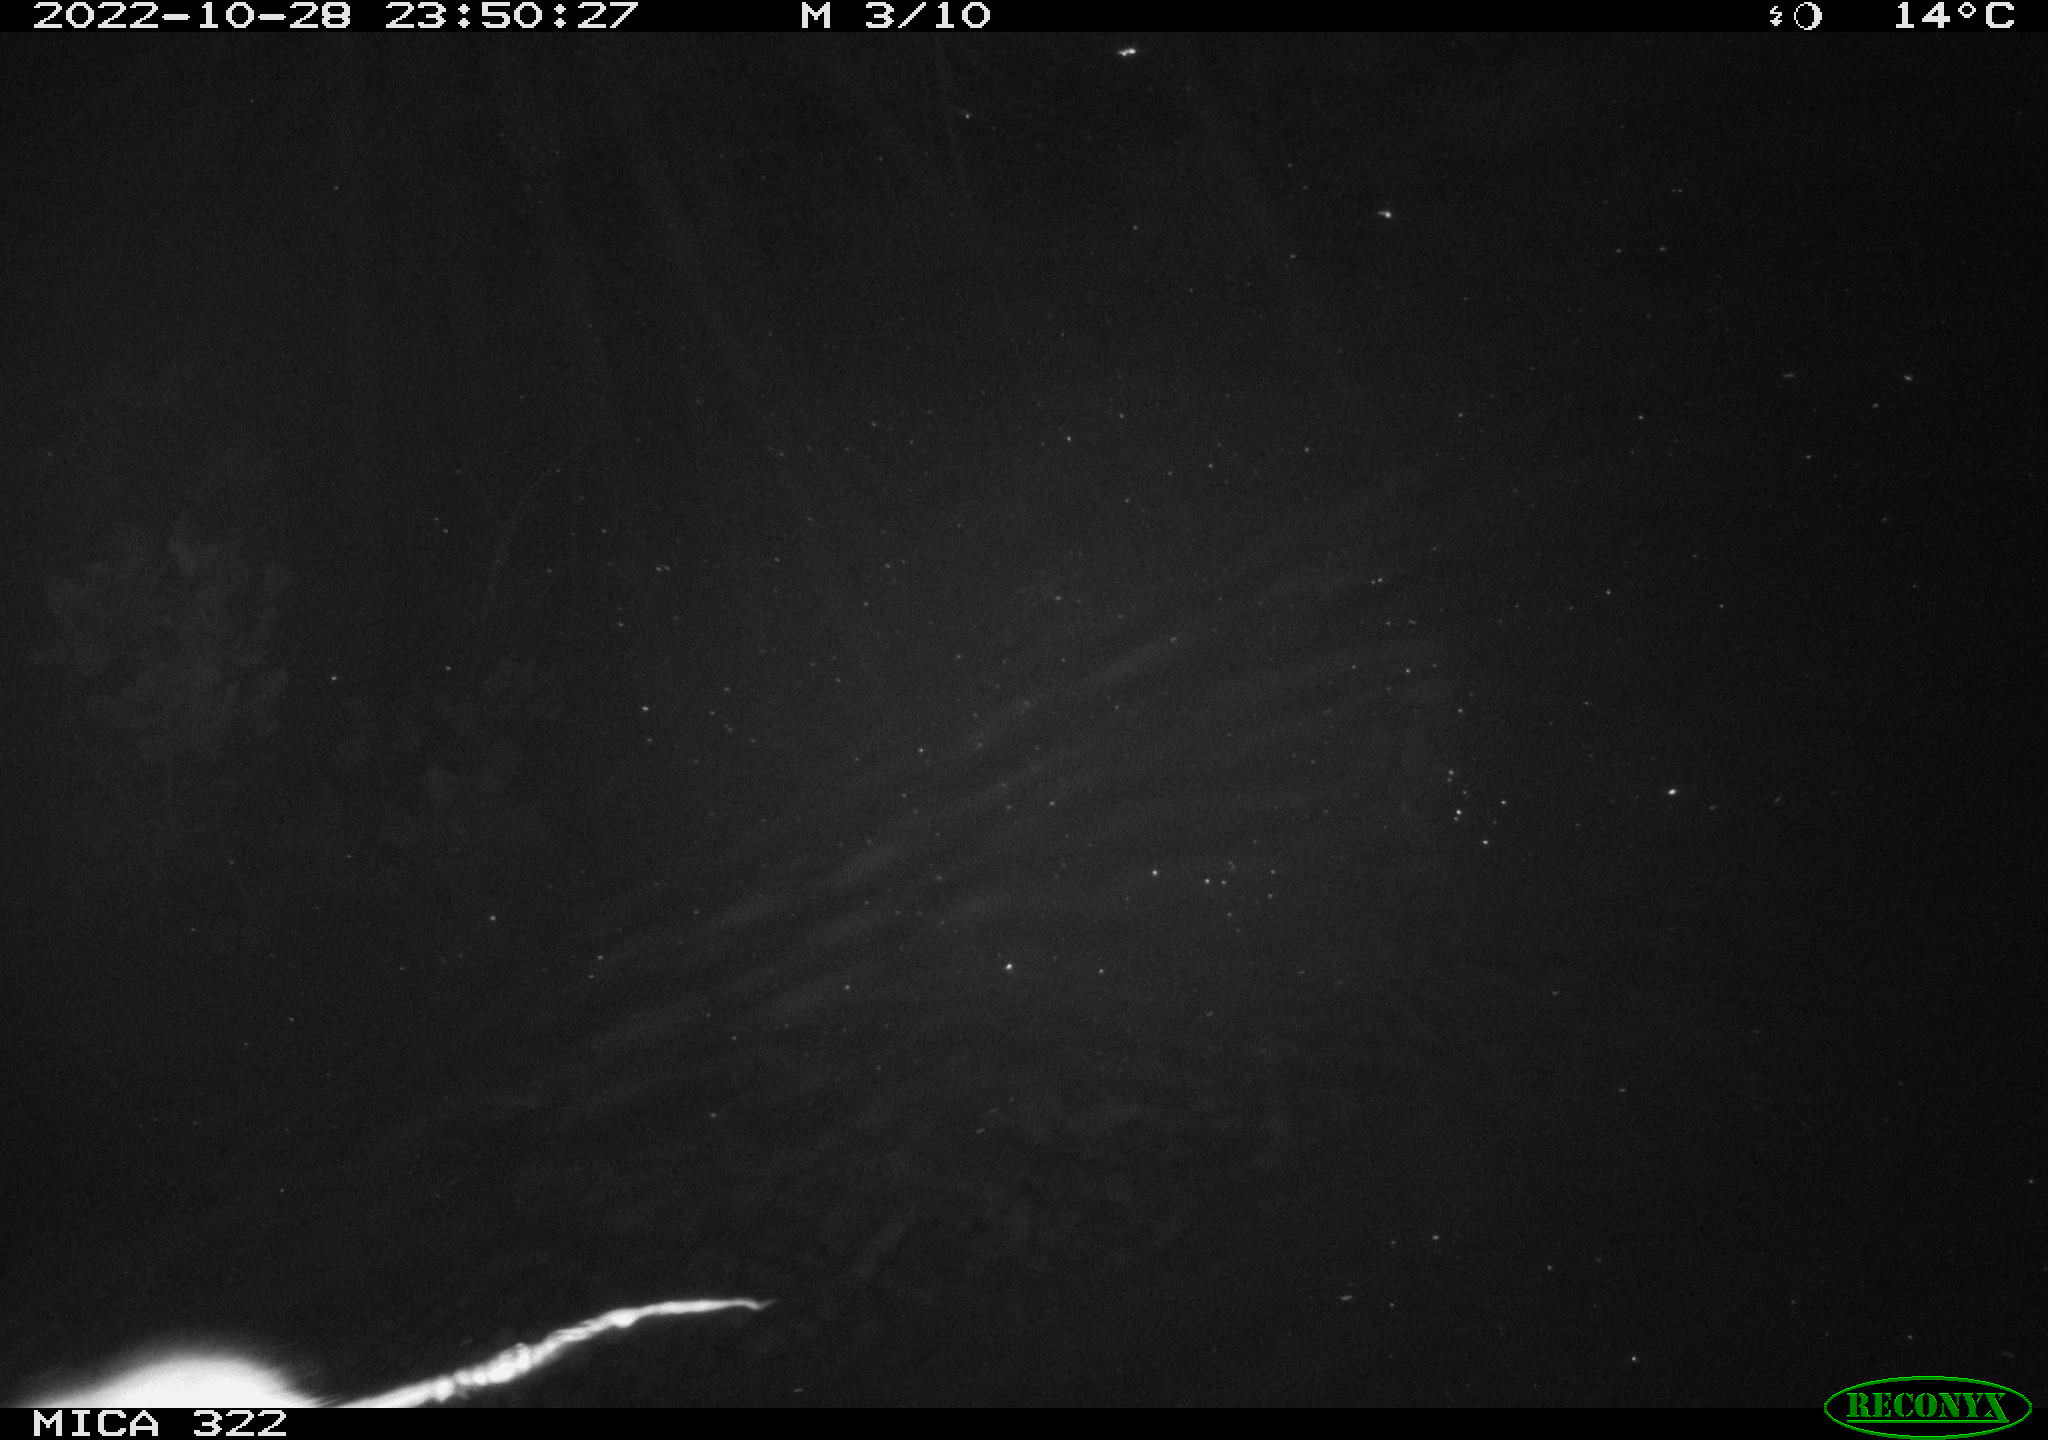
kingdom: Animalia
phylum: Chordata
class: Mammalia
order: Rodentia
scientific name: Rodentia
